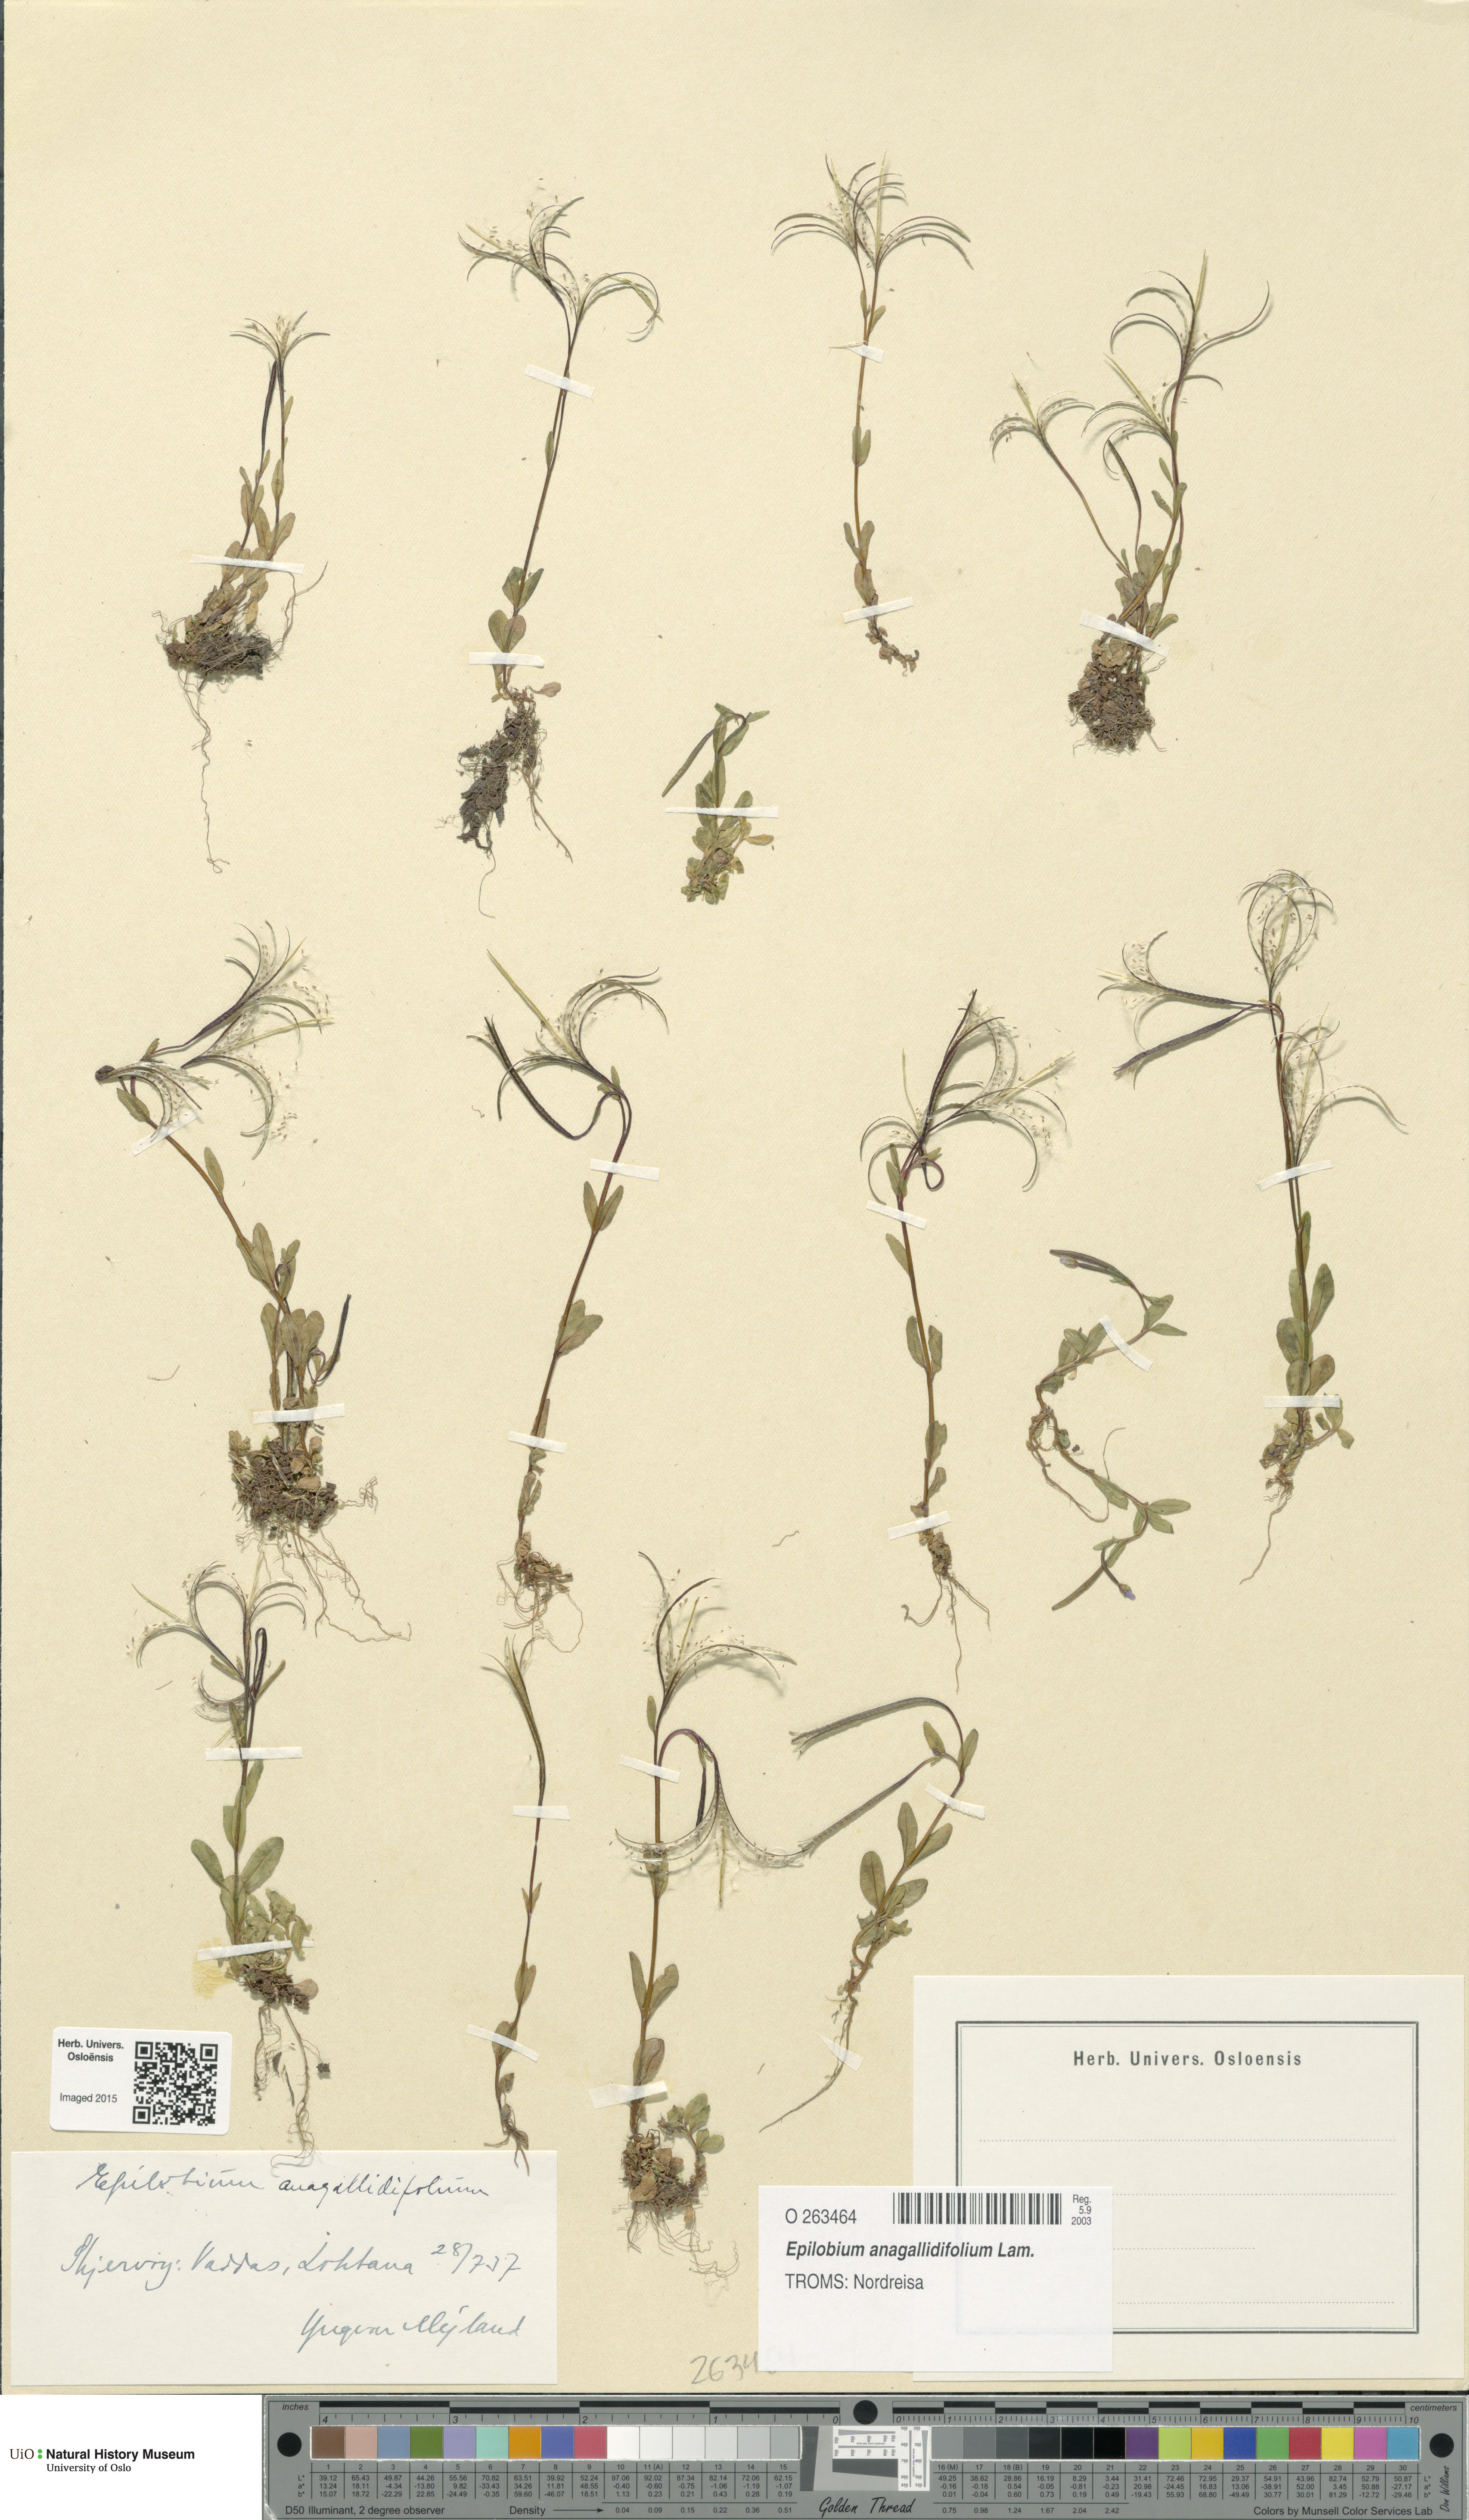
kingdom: Plantae
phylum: Tracheophyta
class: Magnoliopsida
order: Myrtales
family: Onagraceae
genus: Epilobium
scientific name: Epilobium anagallidifolium
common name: Alpine willowherb
